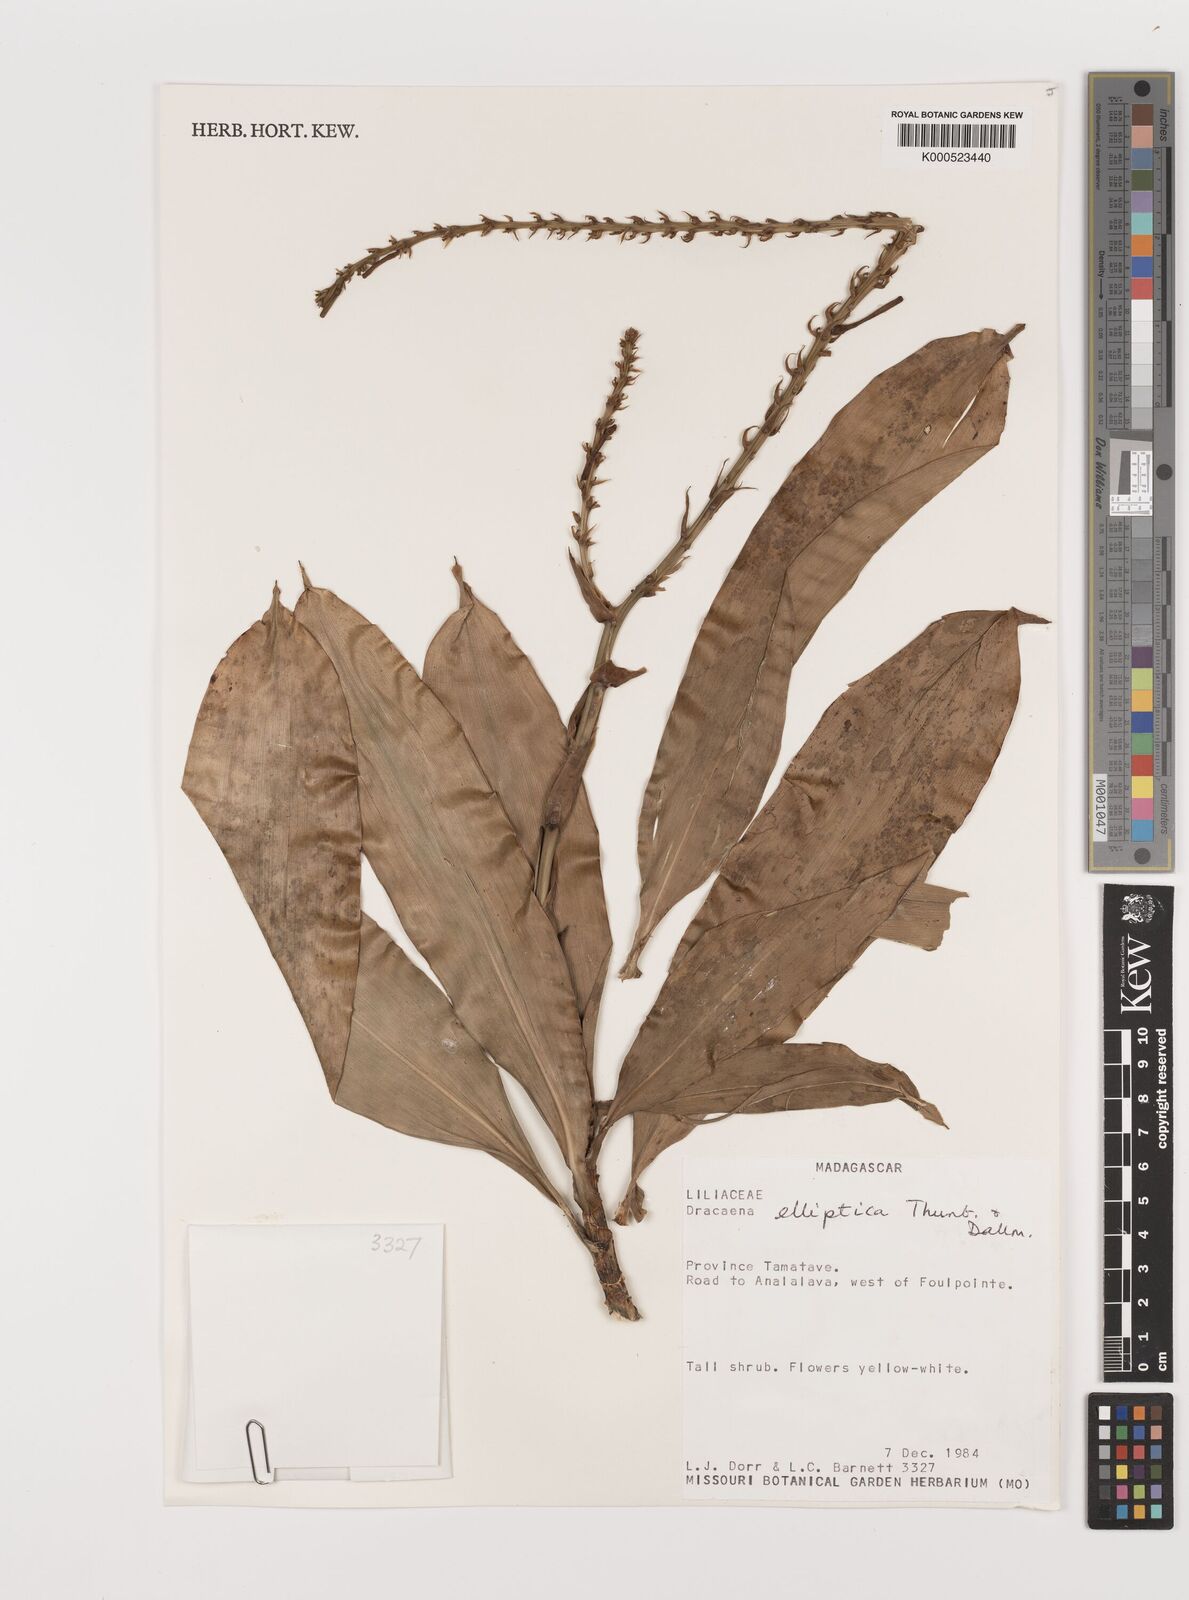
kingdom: Plantae
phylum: Tracheophyta
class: Liliopsida
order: Asparagales
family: Asparagaceae
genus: Dracaena
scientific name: Dracaena elliptica
